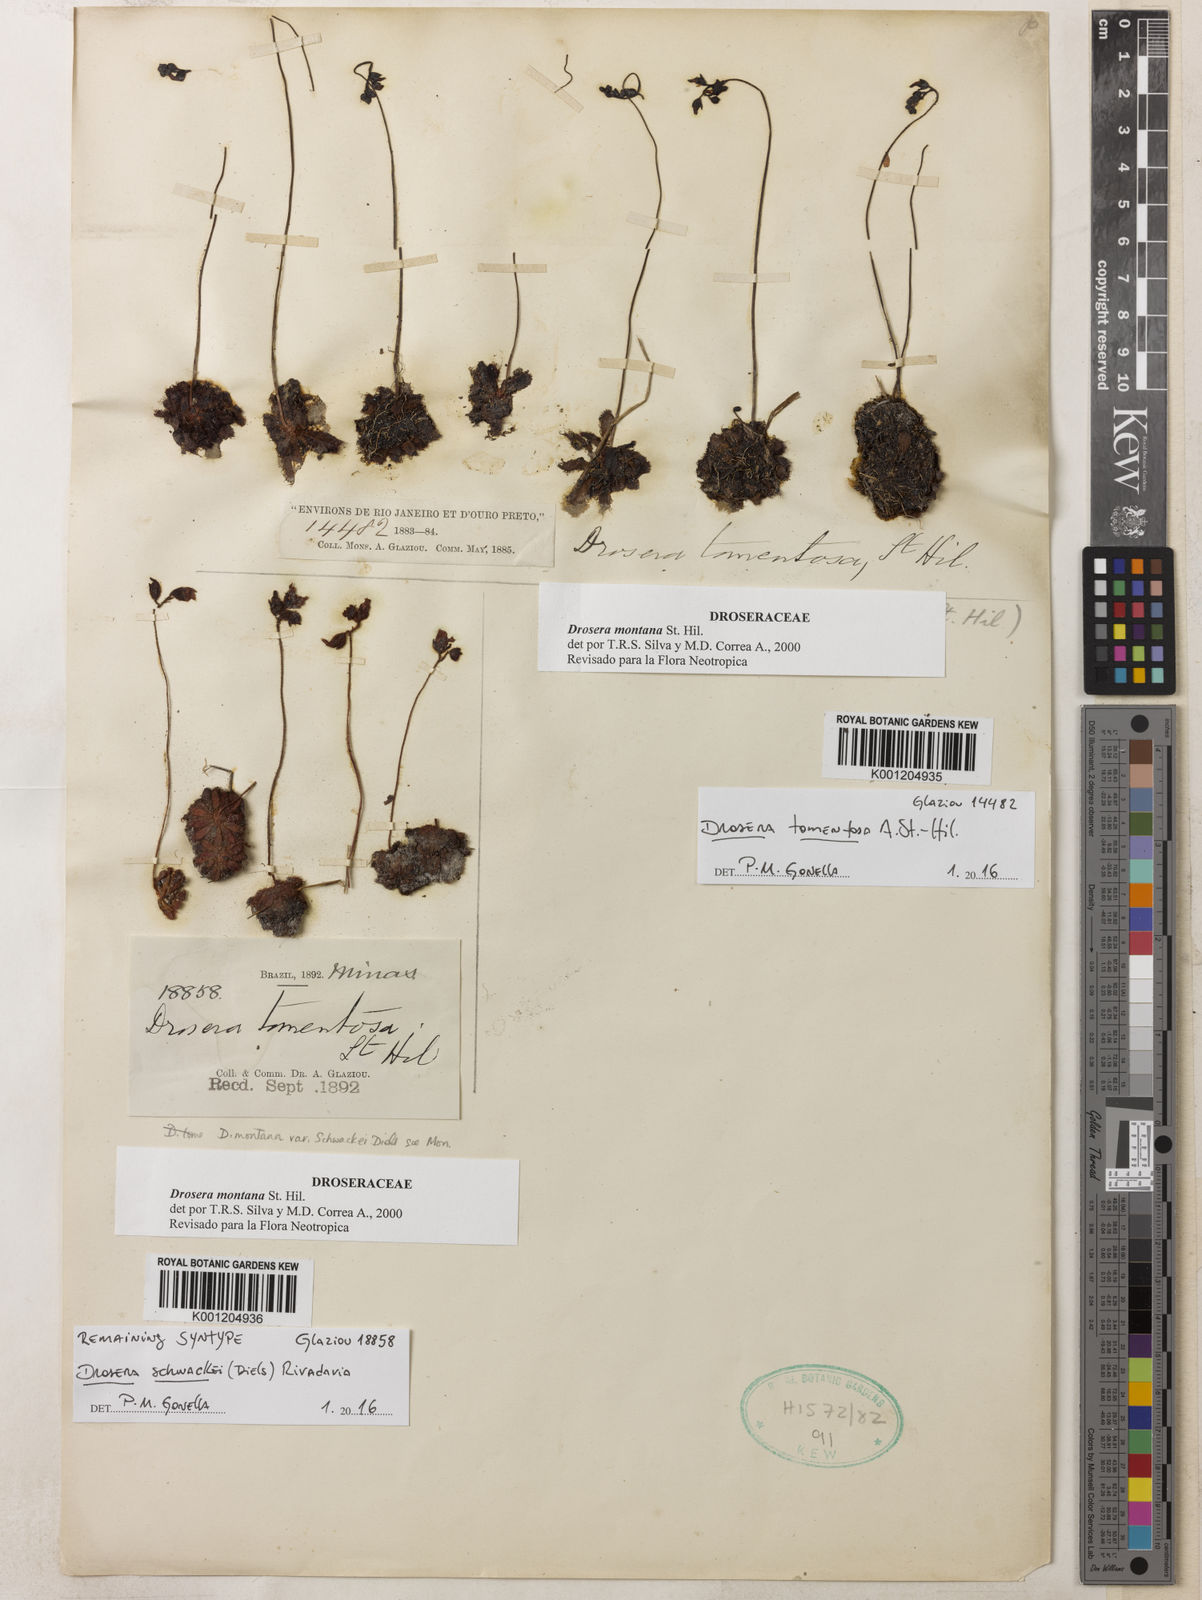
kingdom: Plantae
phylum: Tracheophyta
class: Magnoliopsida
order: Caryophyllales
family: Droseraceae
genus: Drosera
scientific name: Drosera montana
